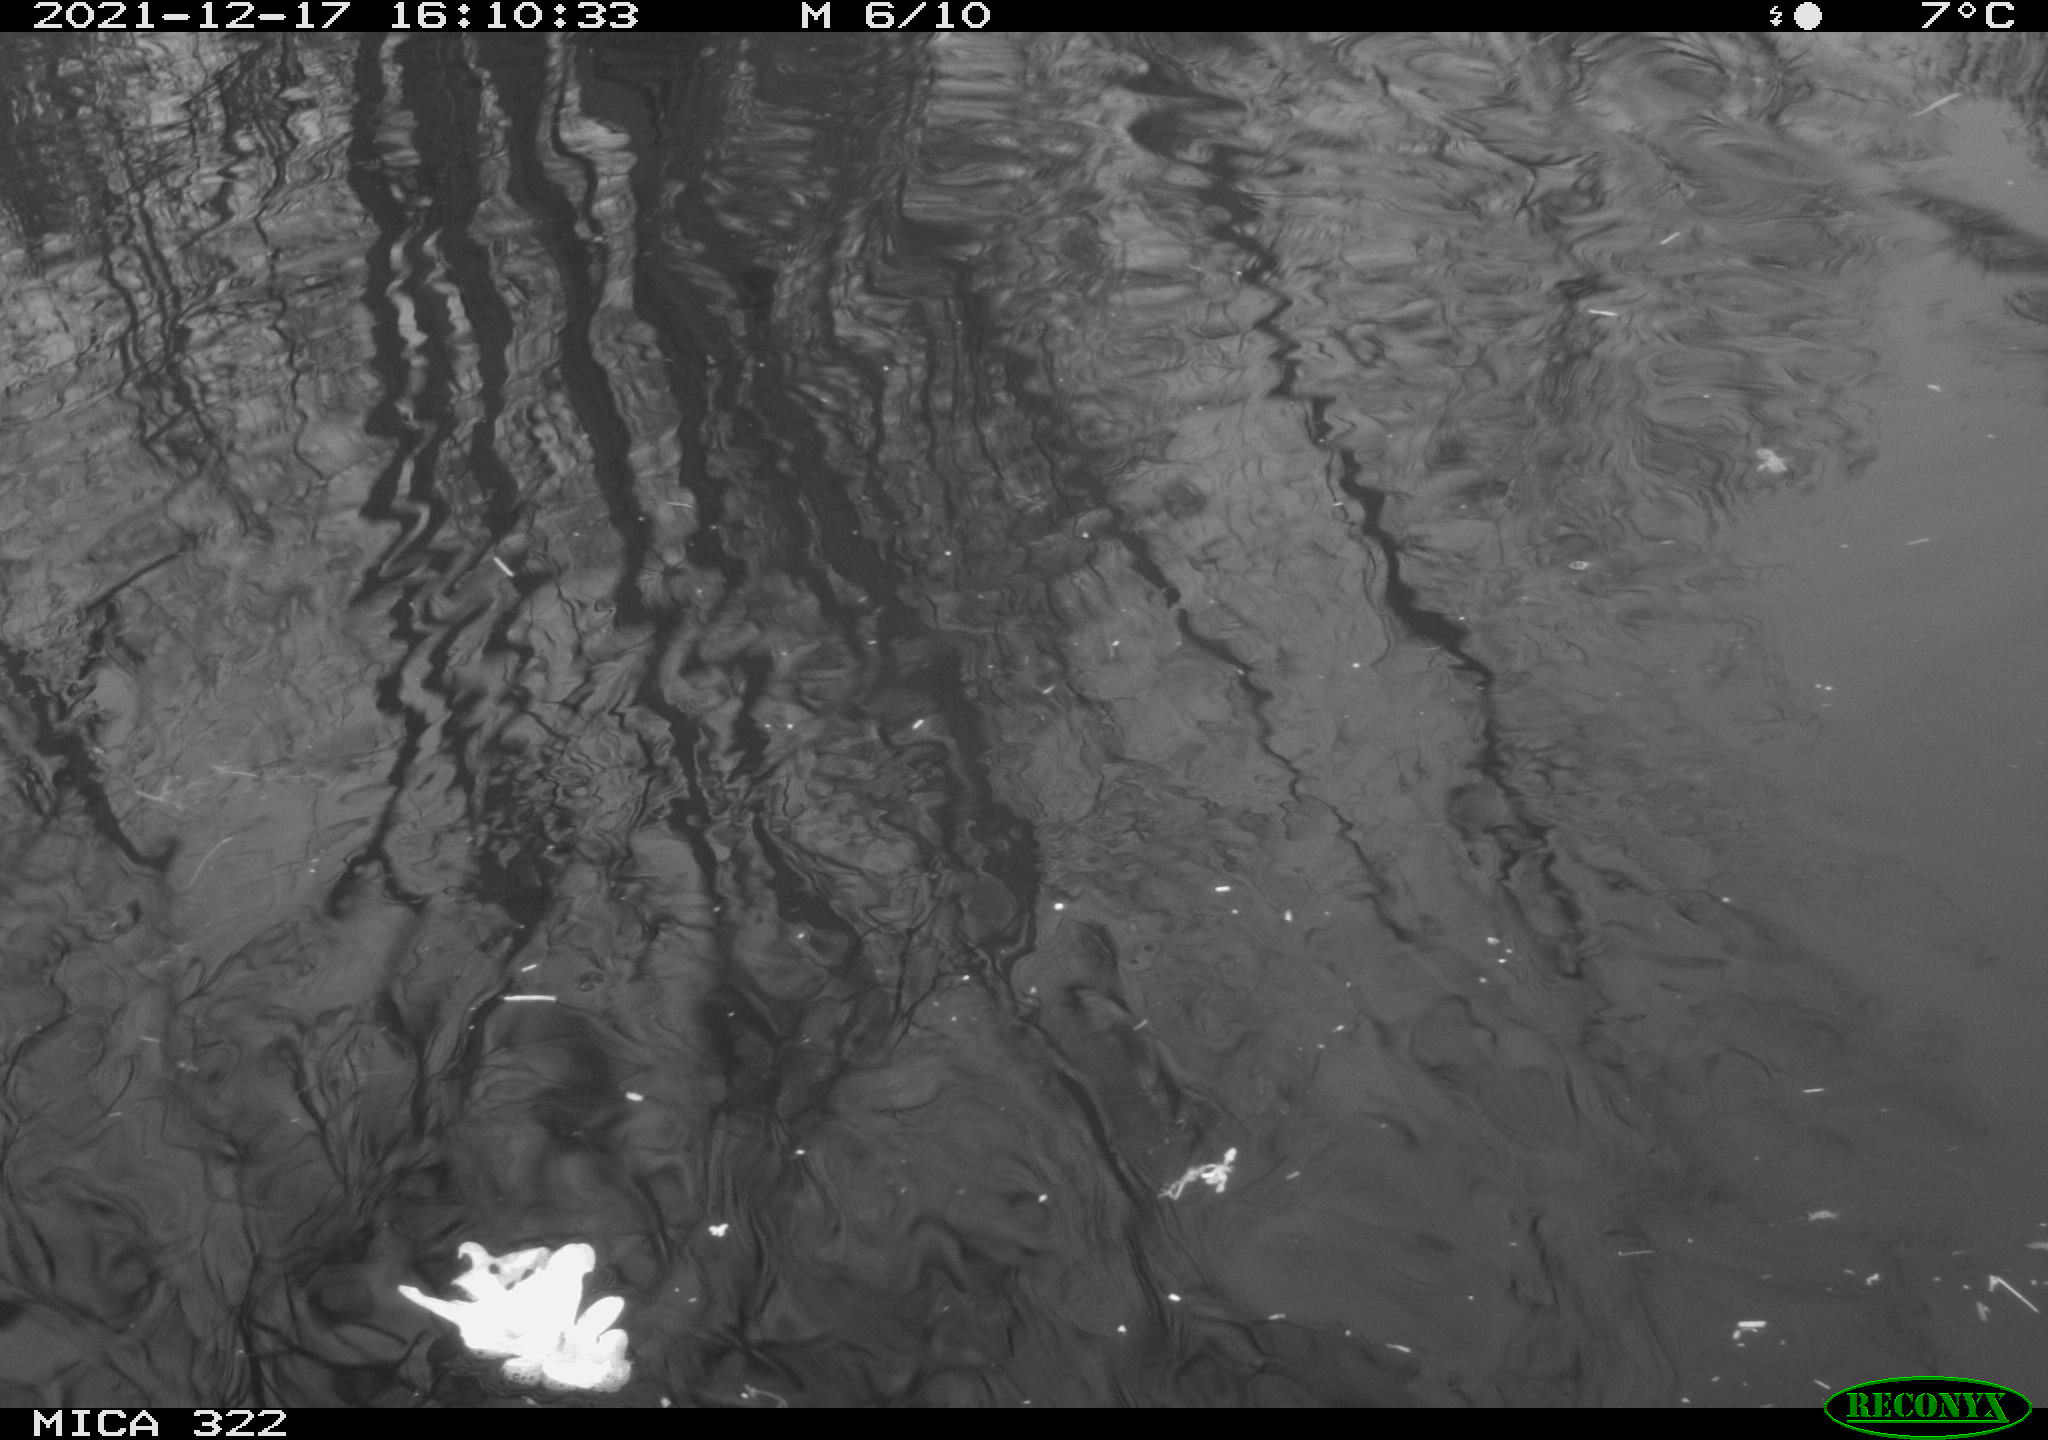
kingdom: Animalia
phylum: Chordata
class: Aves
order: Podicipediformes
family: Podicipedidae
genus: Tachybaptus
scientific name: Tachybaptus ruficollis
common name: Little grebe
